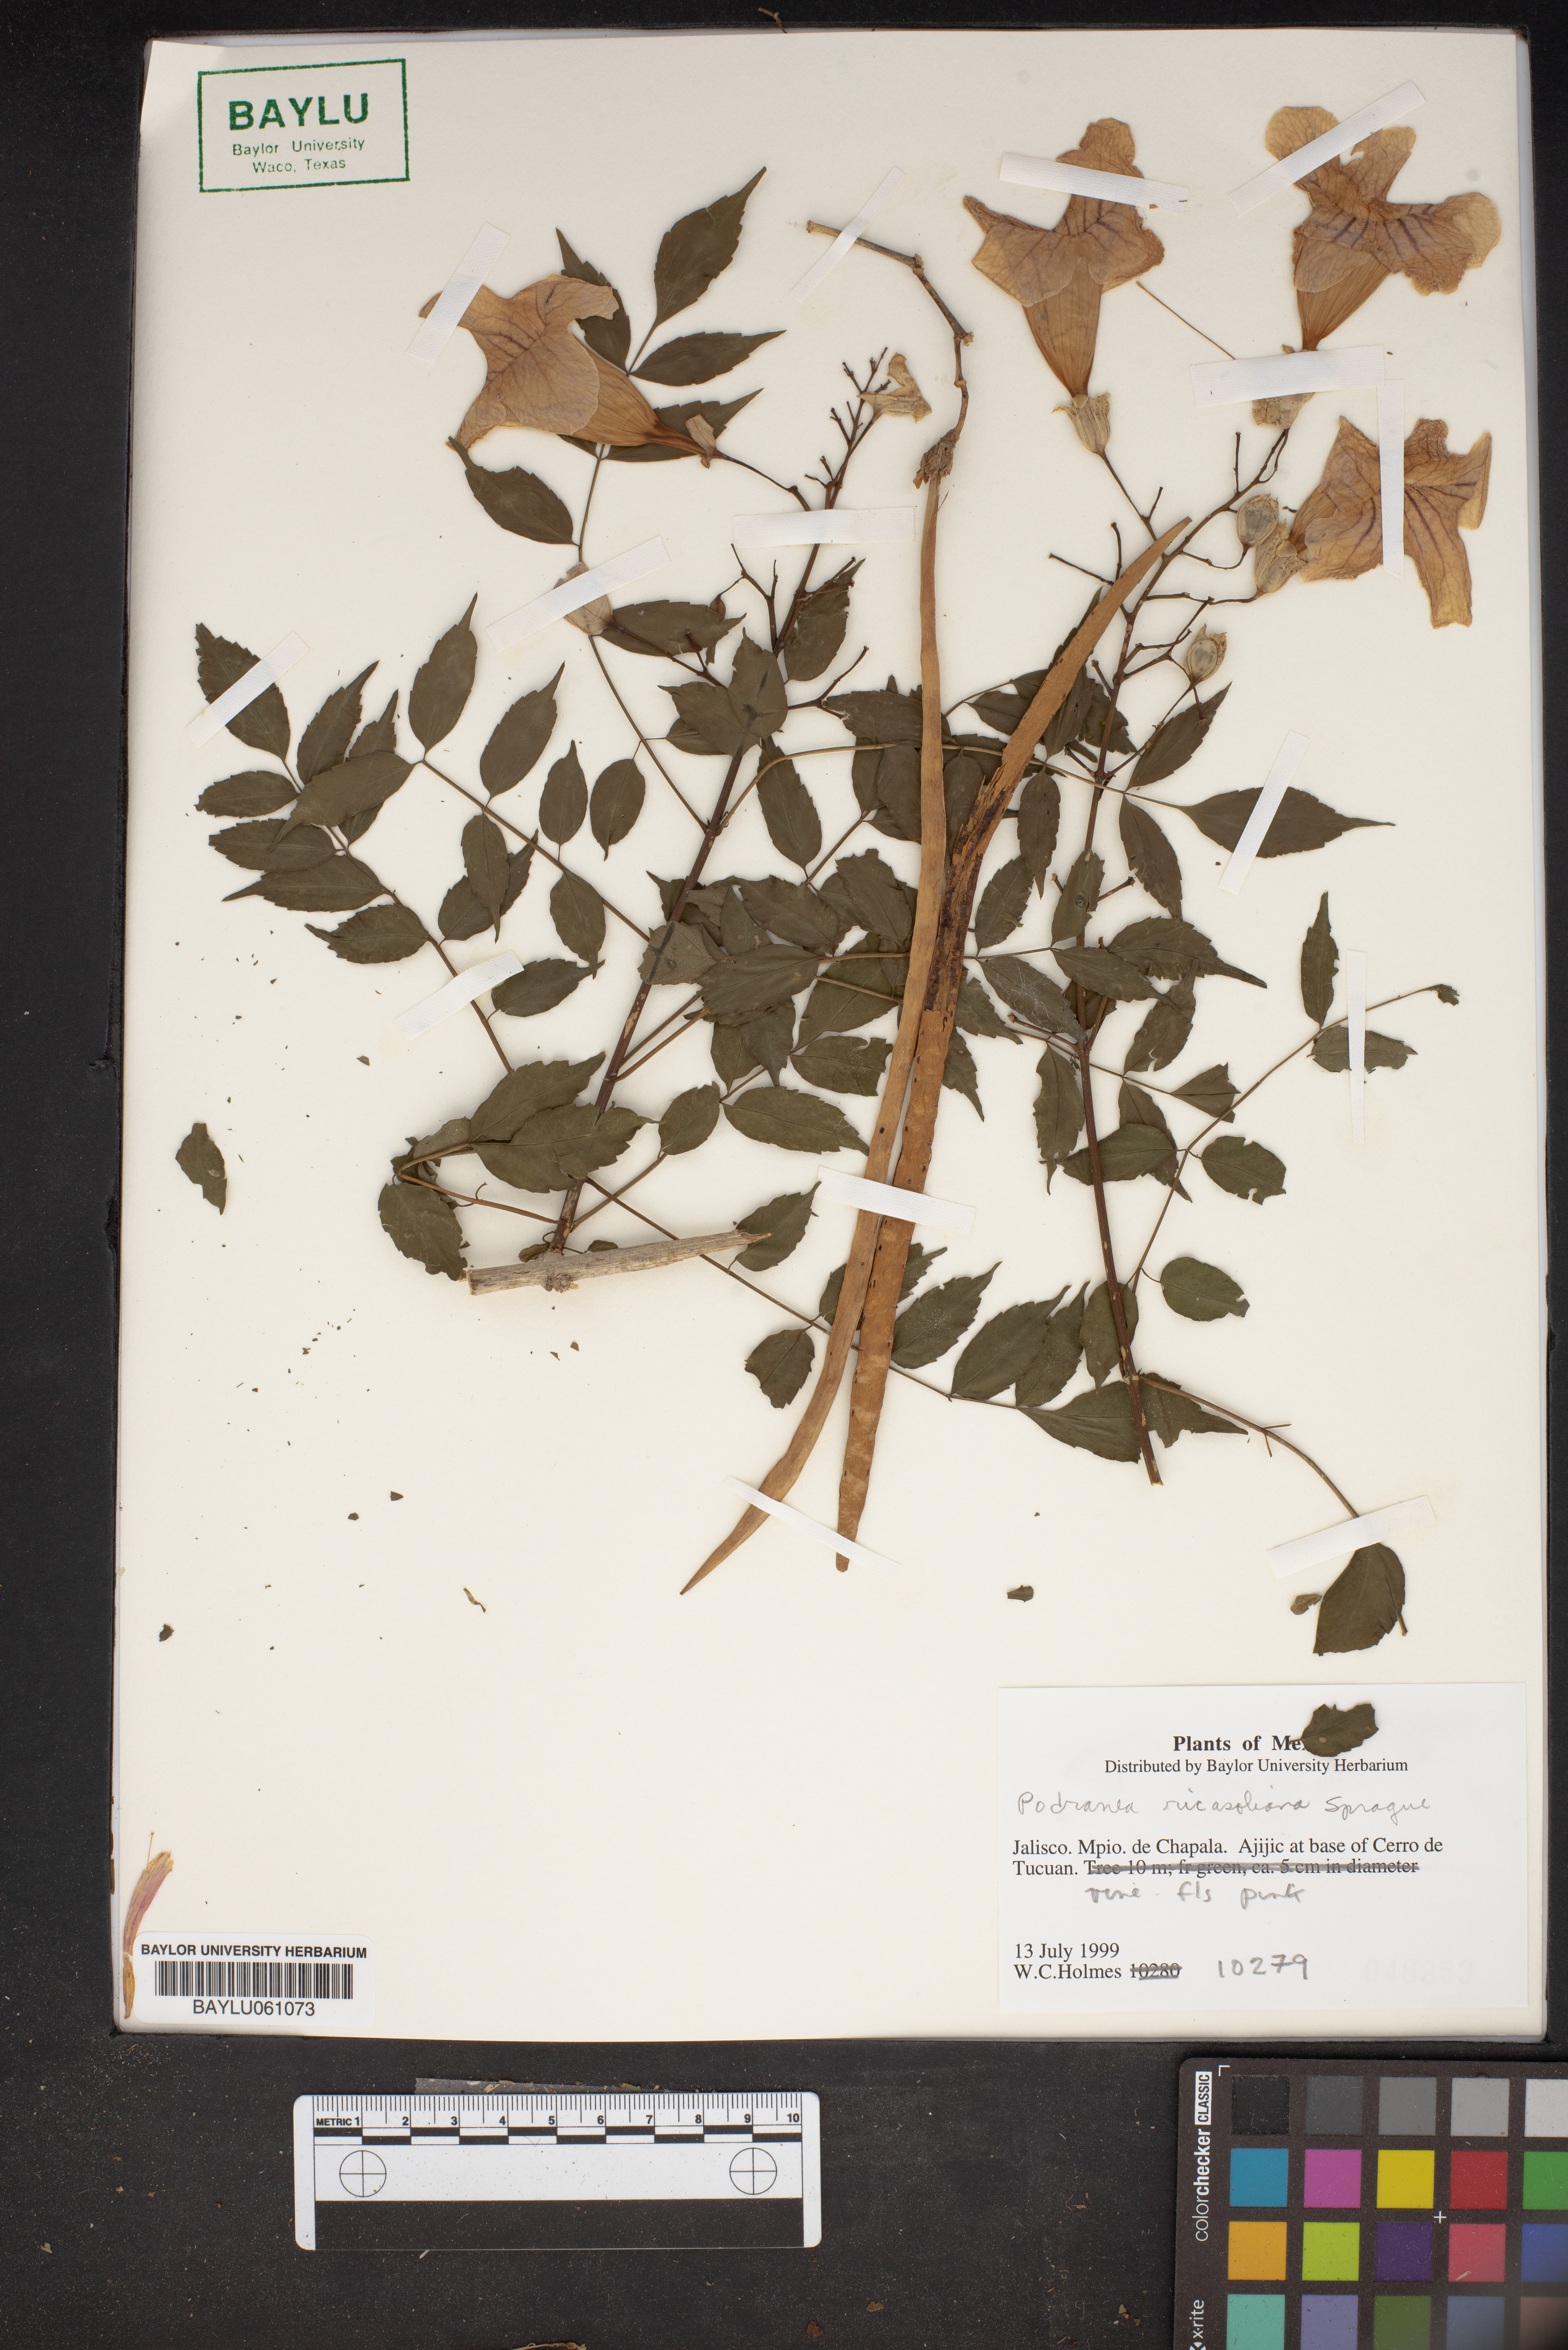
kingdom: Plantae
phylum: Tracheophyta
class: Magnoliopsida
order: Lamiales
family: Bignoniaceae
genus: Podranea
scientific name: Podranea ricasoliana
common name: Zimbabwe creeper
